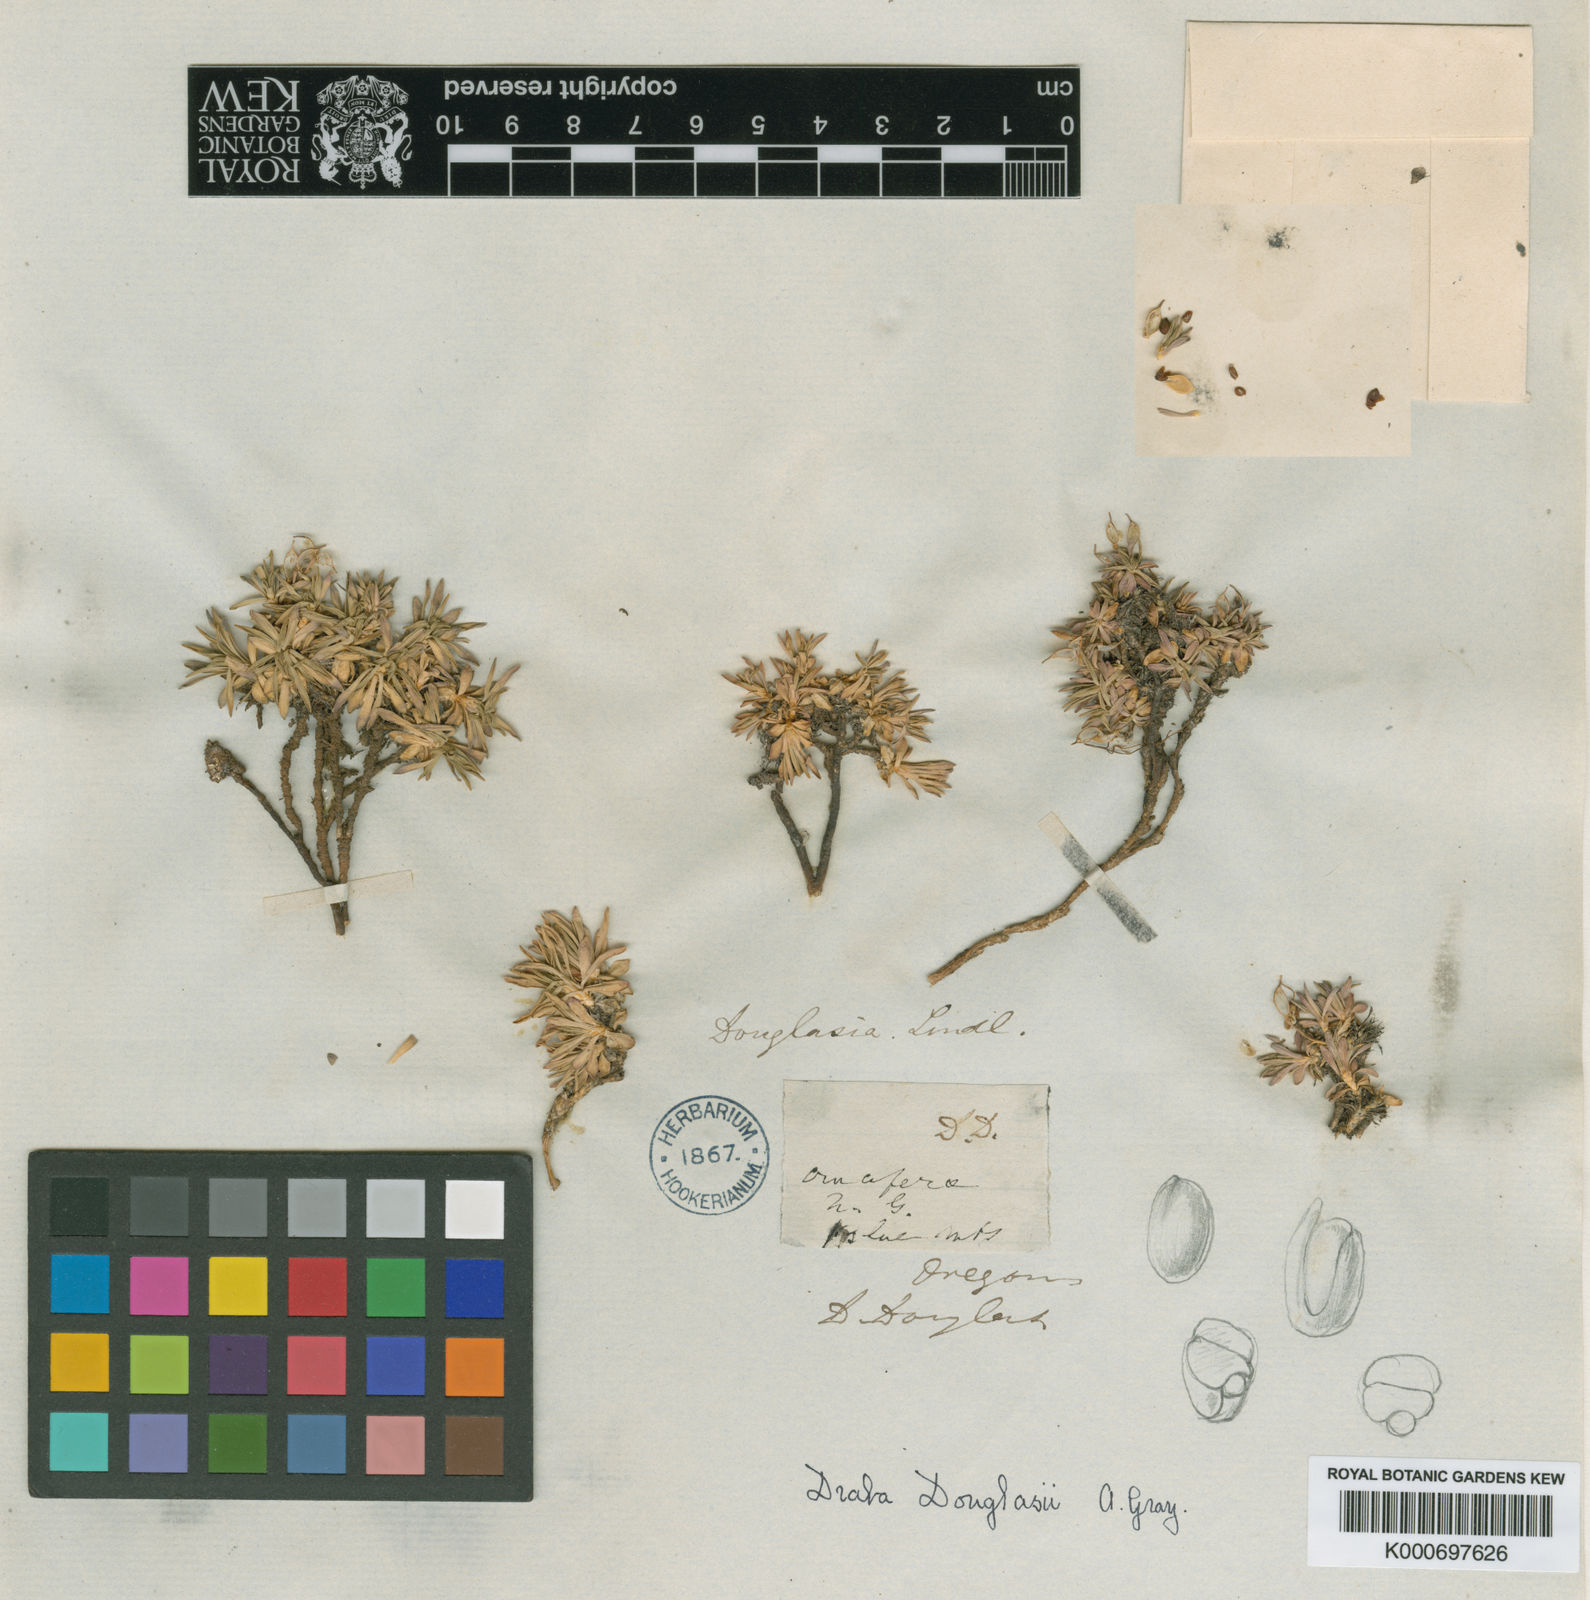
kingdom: Plantae
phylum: Tracheophyta
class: Magnoliopsida
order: Brassicales
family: Brassicaceae
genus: Cusickiella
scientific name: Cusickiella douglasii
